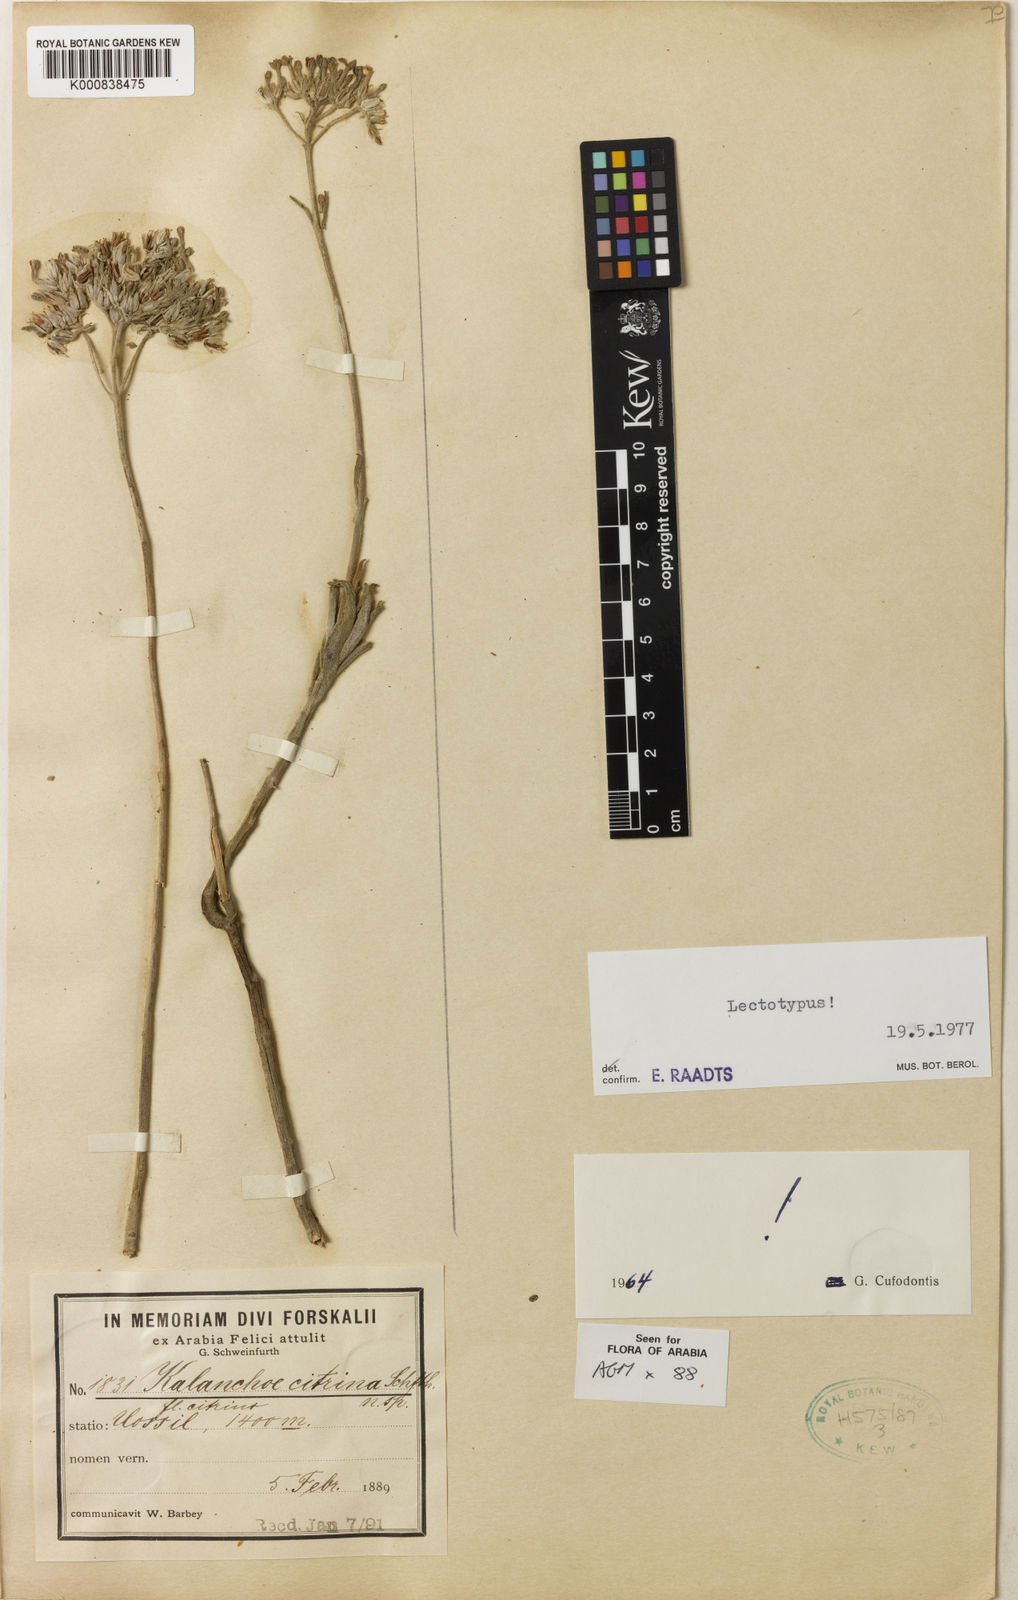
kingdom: Plantae
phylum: Tracheophyta
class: Magnoliopsida
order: Saxifragales
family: Crassulaceae
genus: Kalanchoe
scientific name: Kalanchoe citrina
